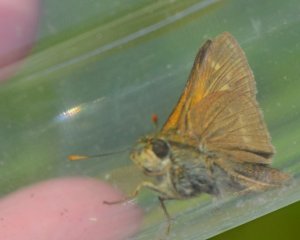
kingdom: Animalia
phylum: Arthropoda
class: Insecta
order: Lepidoptera
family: Hesperiidae
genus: Polites
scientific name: Polites
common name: Crossline Skipper
